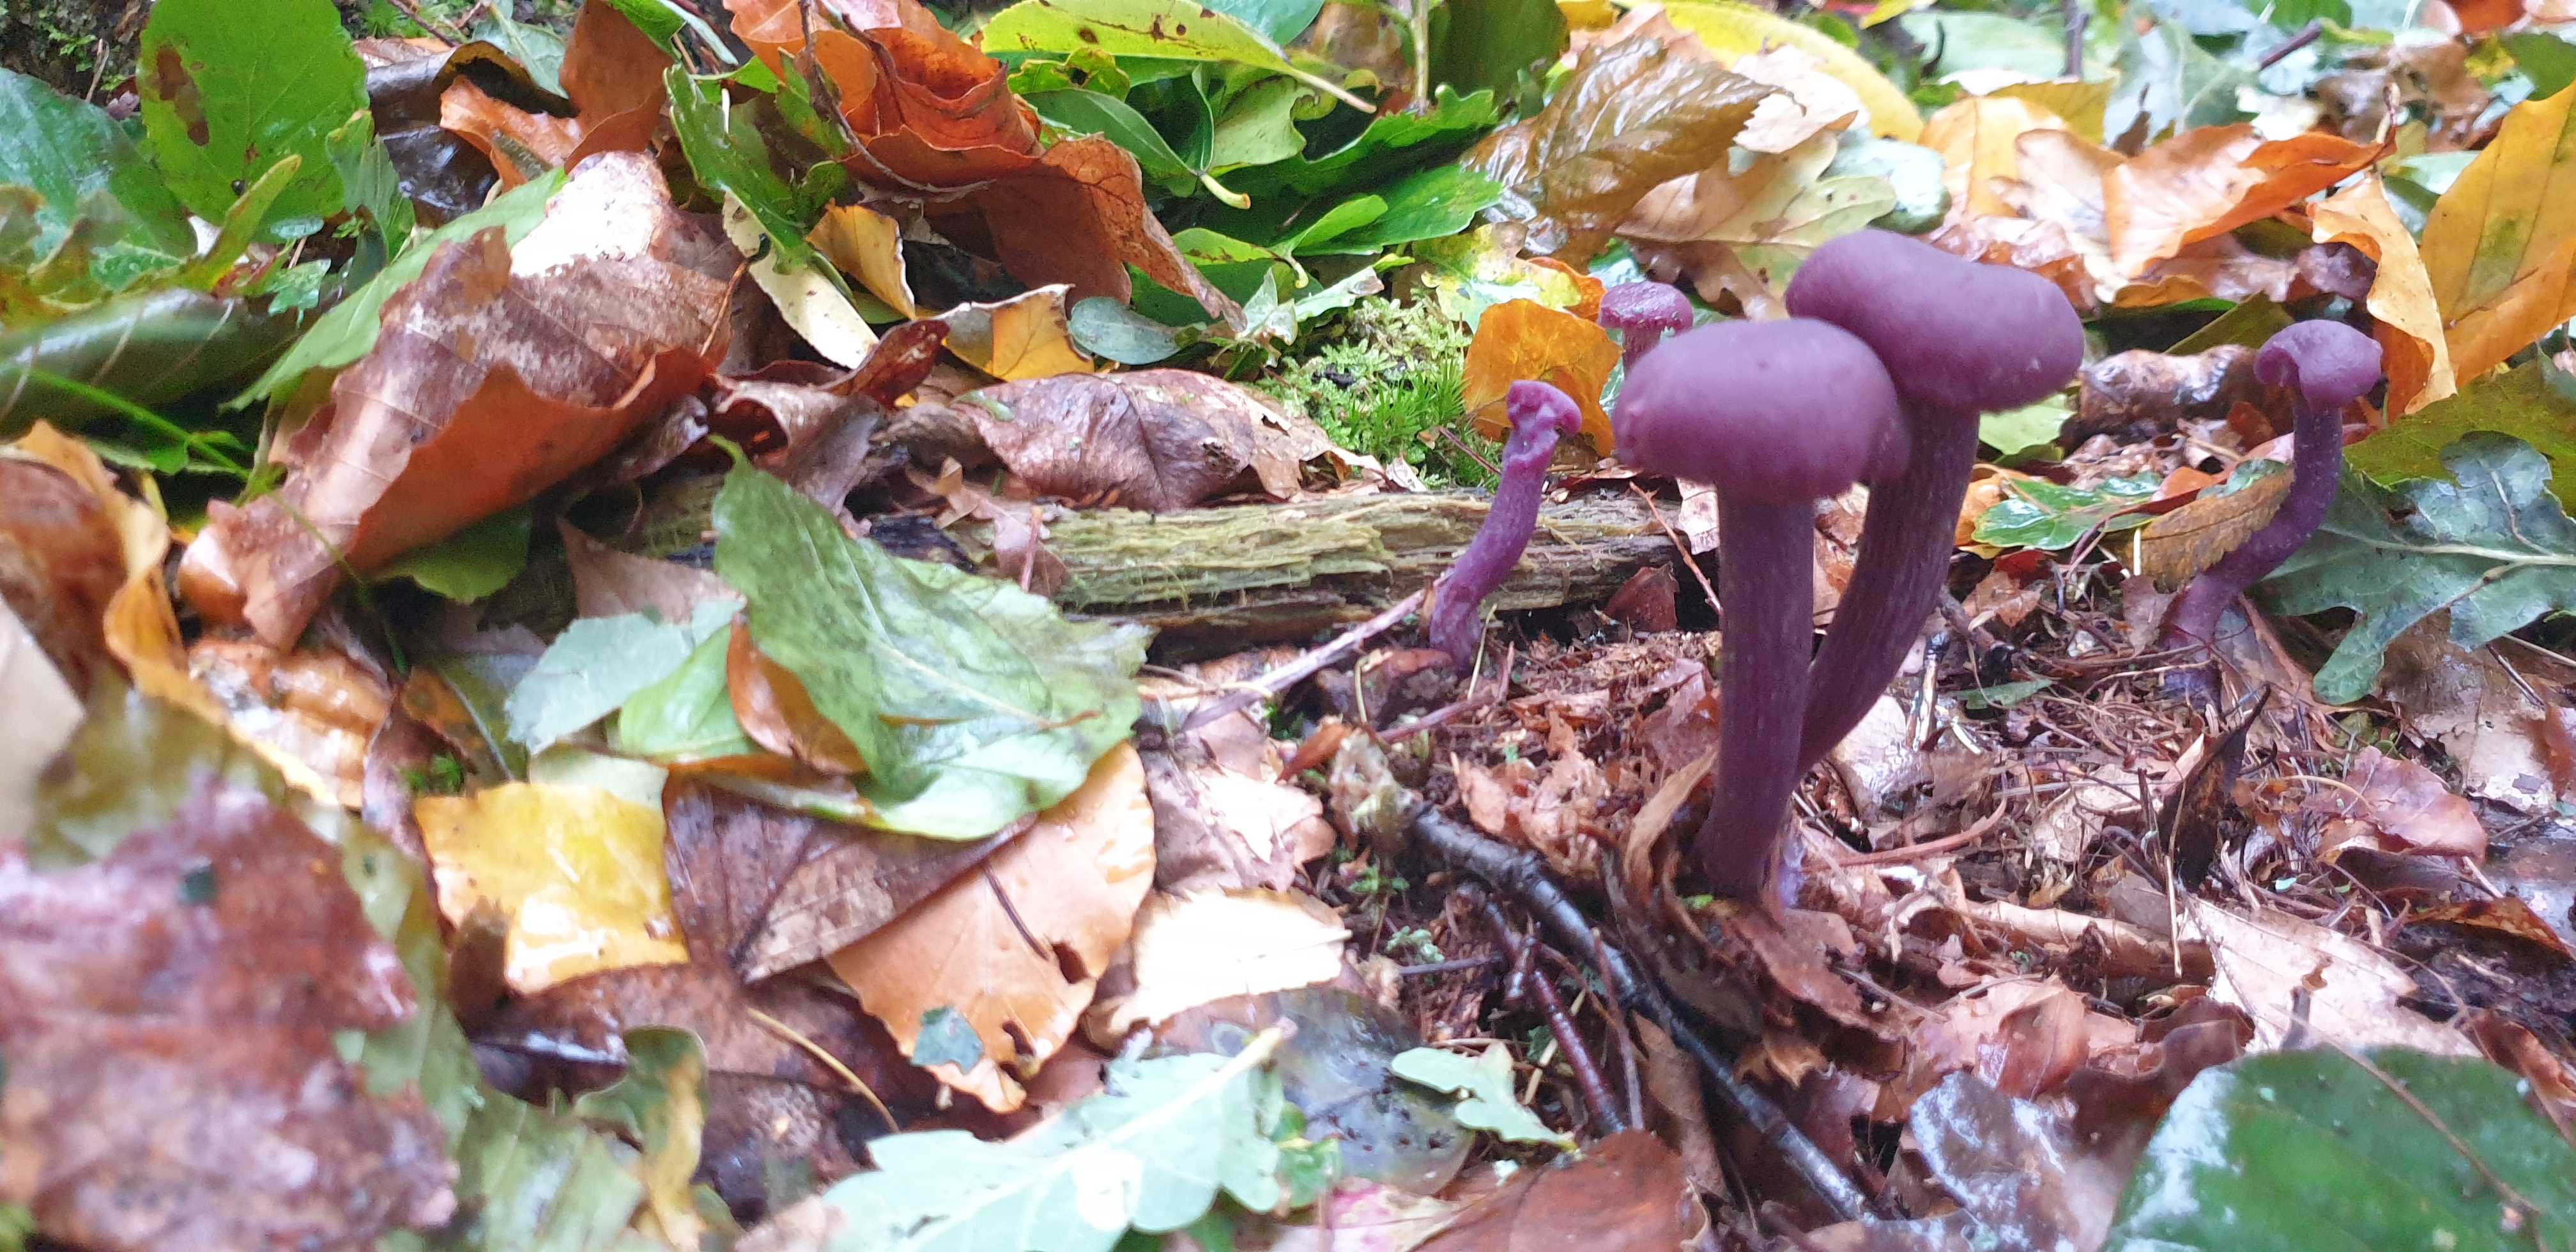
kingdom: Fungi
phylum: Basidiomycota
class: Agaricomycetes
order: Agaricales
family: Hydnangiaceae
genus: Laccaria
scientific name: Laccaria amethystina
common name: violet ametysthat
